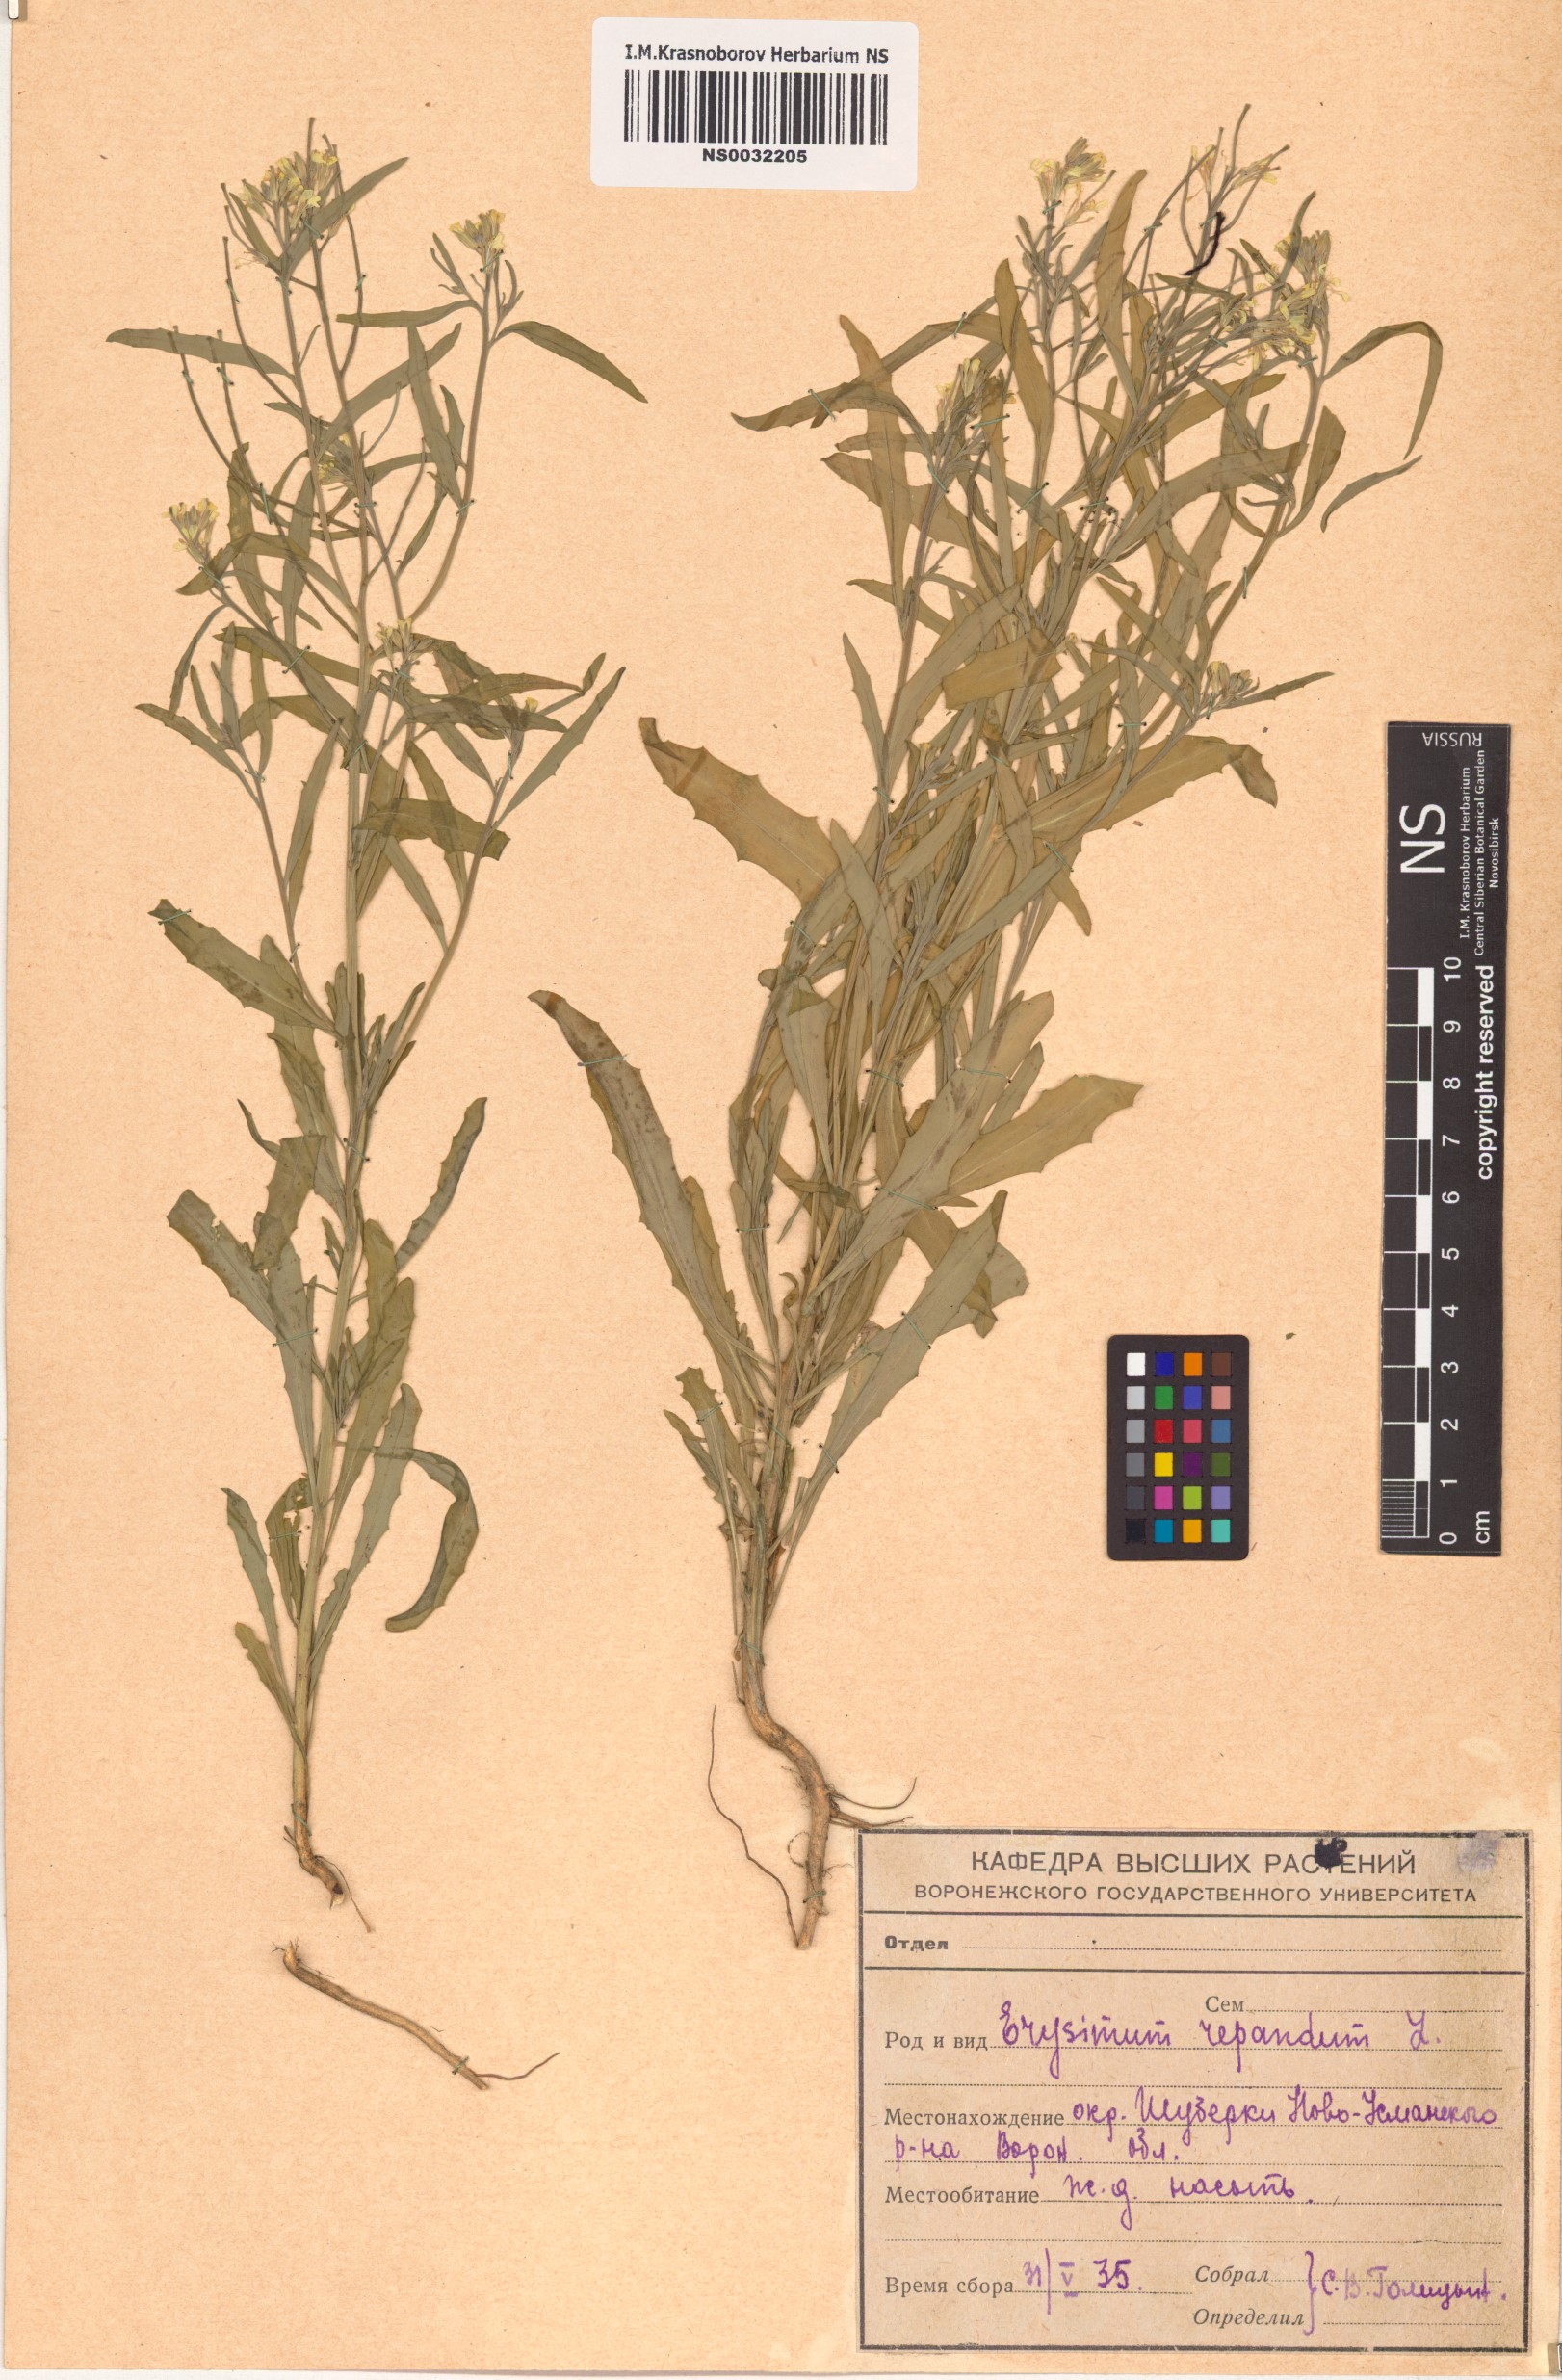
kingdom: Plantae
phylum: Tracheophyta
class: Magnoliopsida
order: Brassicales
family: Brassicaceae
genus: Erysimum
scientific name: Erysimum repandum
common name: Spreading wallflower
